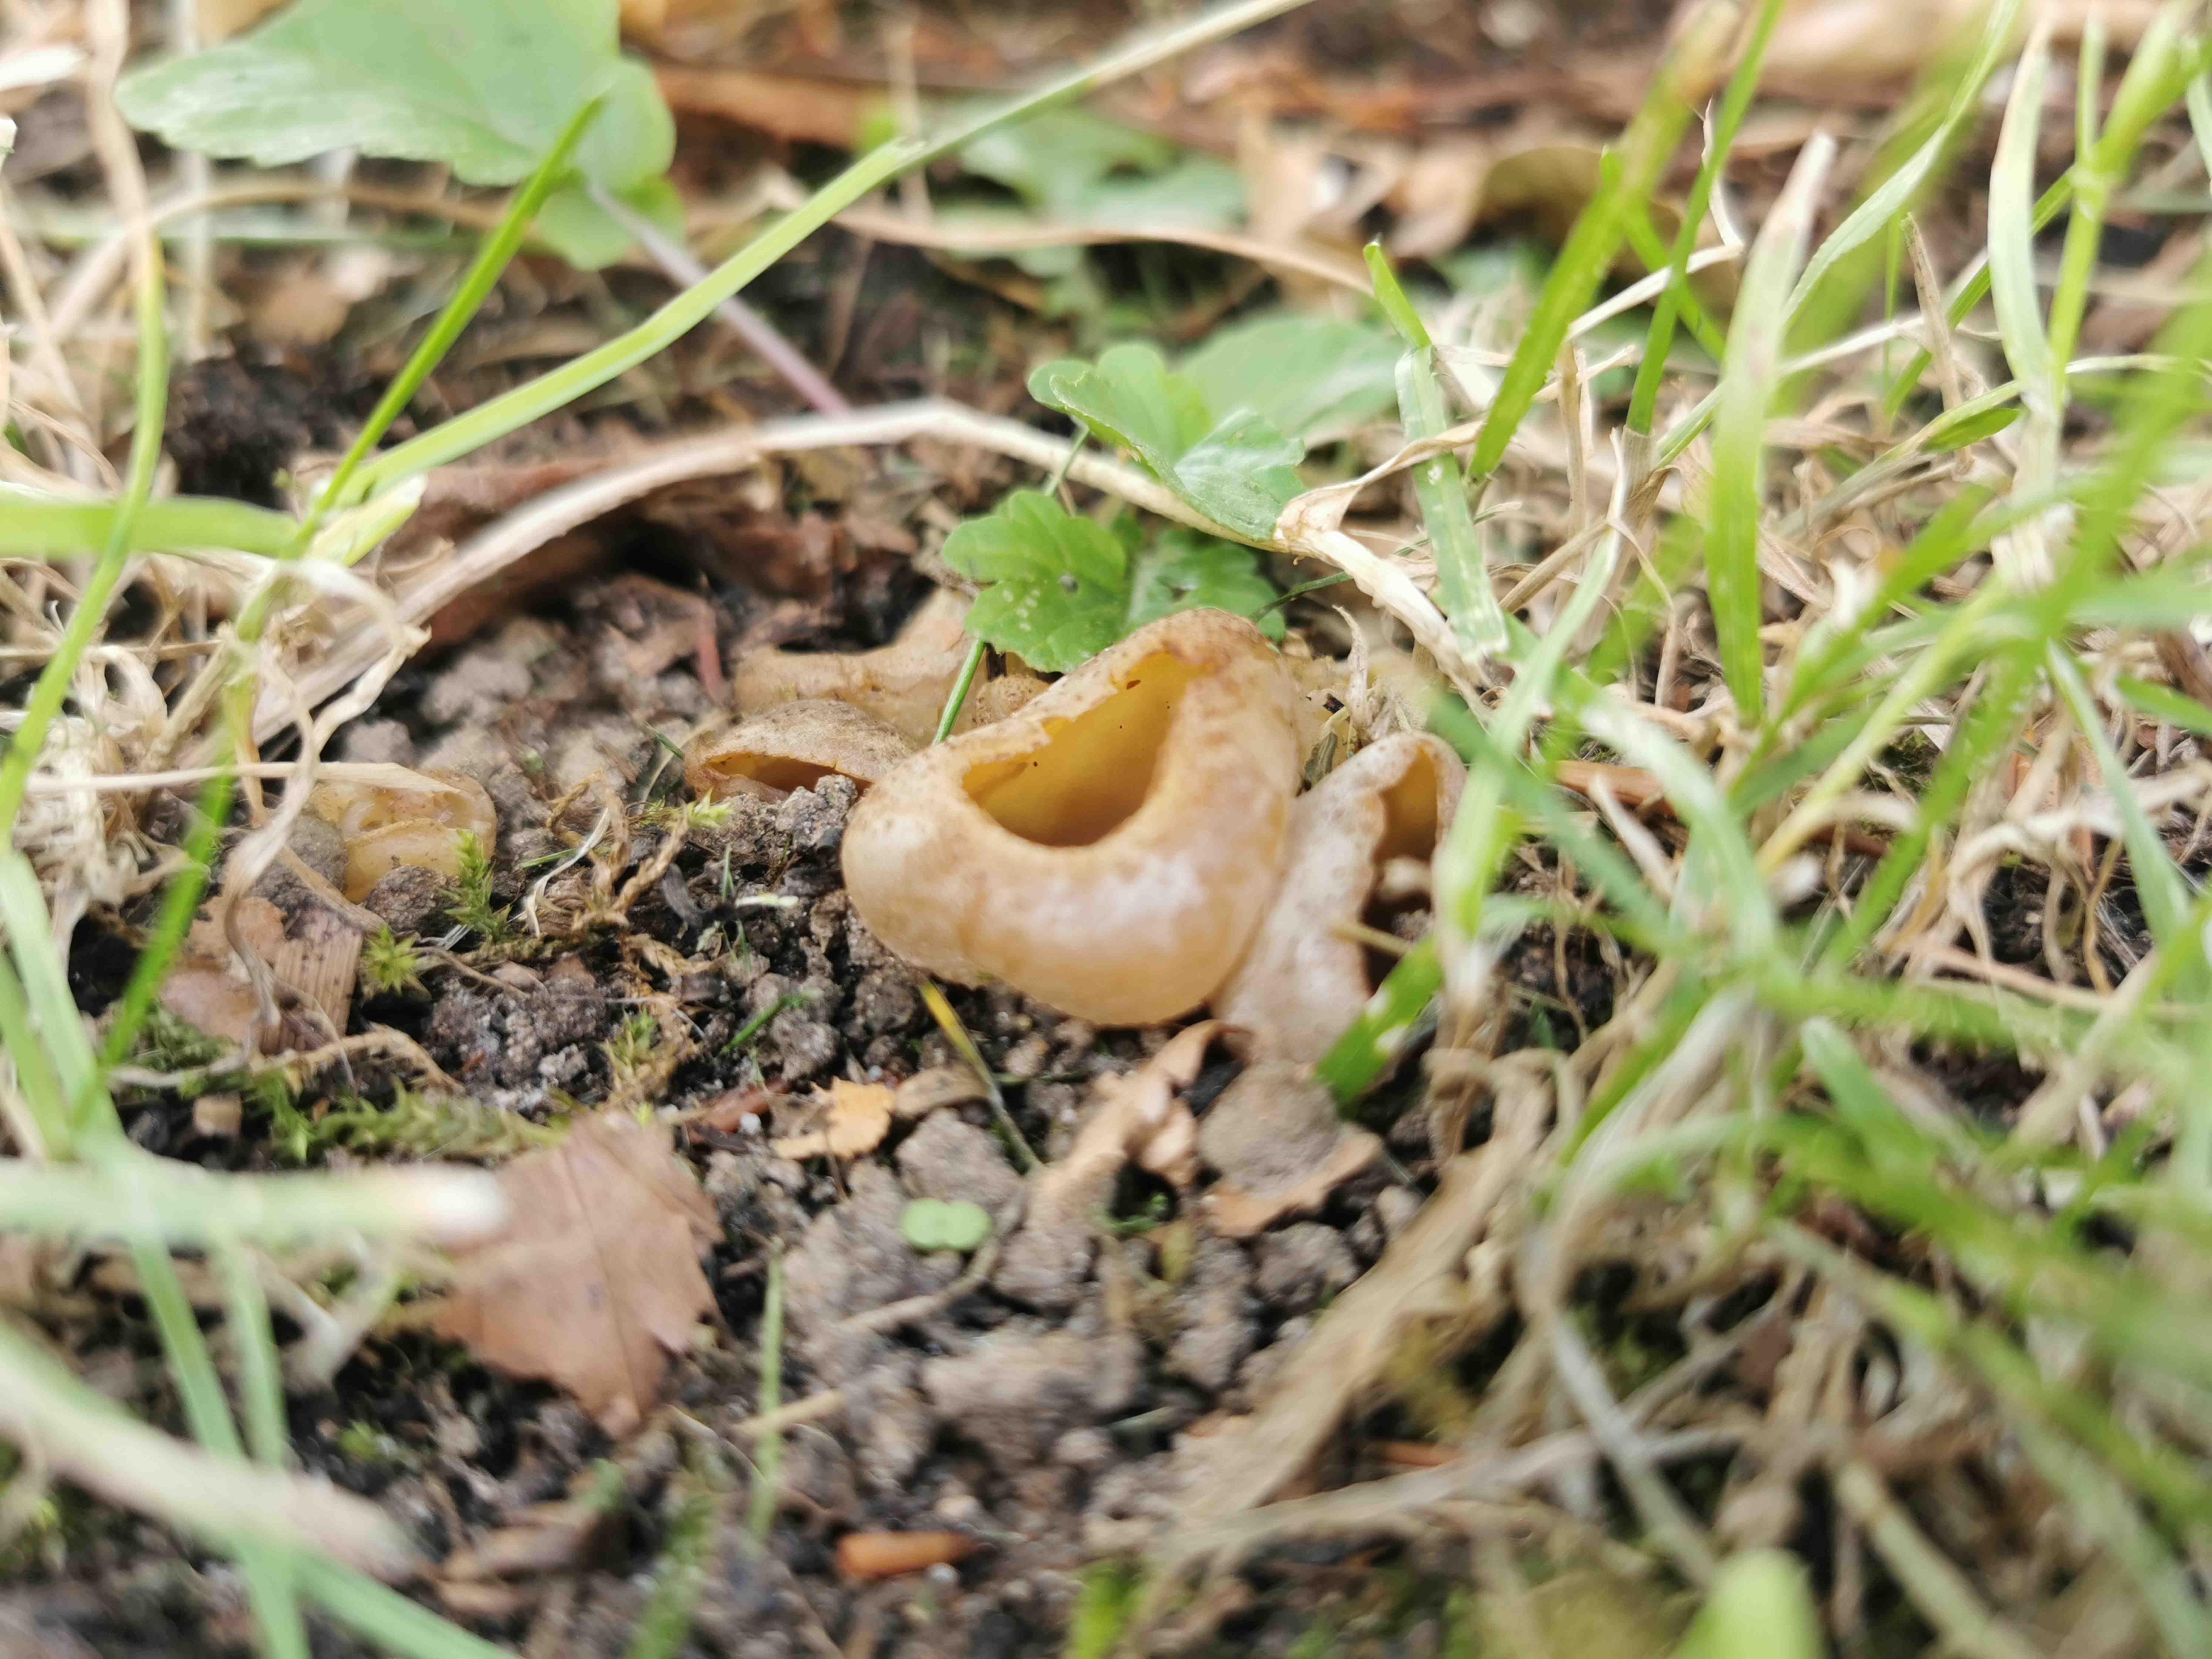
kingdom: Fungi
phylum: Ascomycota
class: Pezizomycetes
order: Pezizales
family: Pezizaceae
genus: Peziza
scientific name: Peziza vesiculosa
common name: blære-bægersvamp
